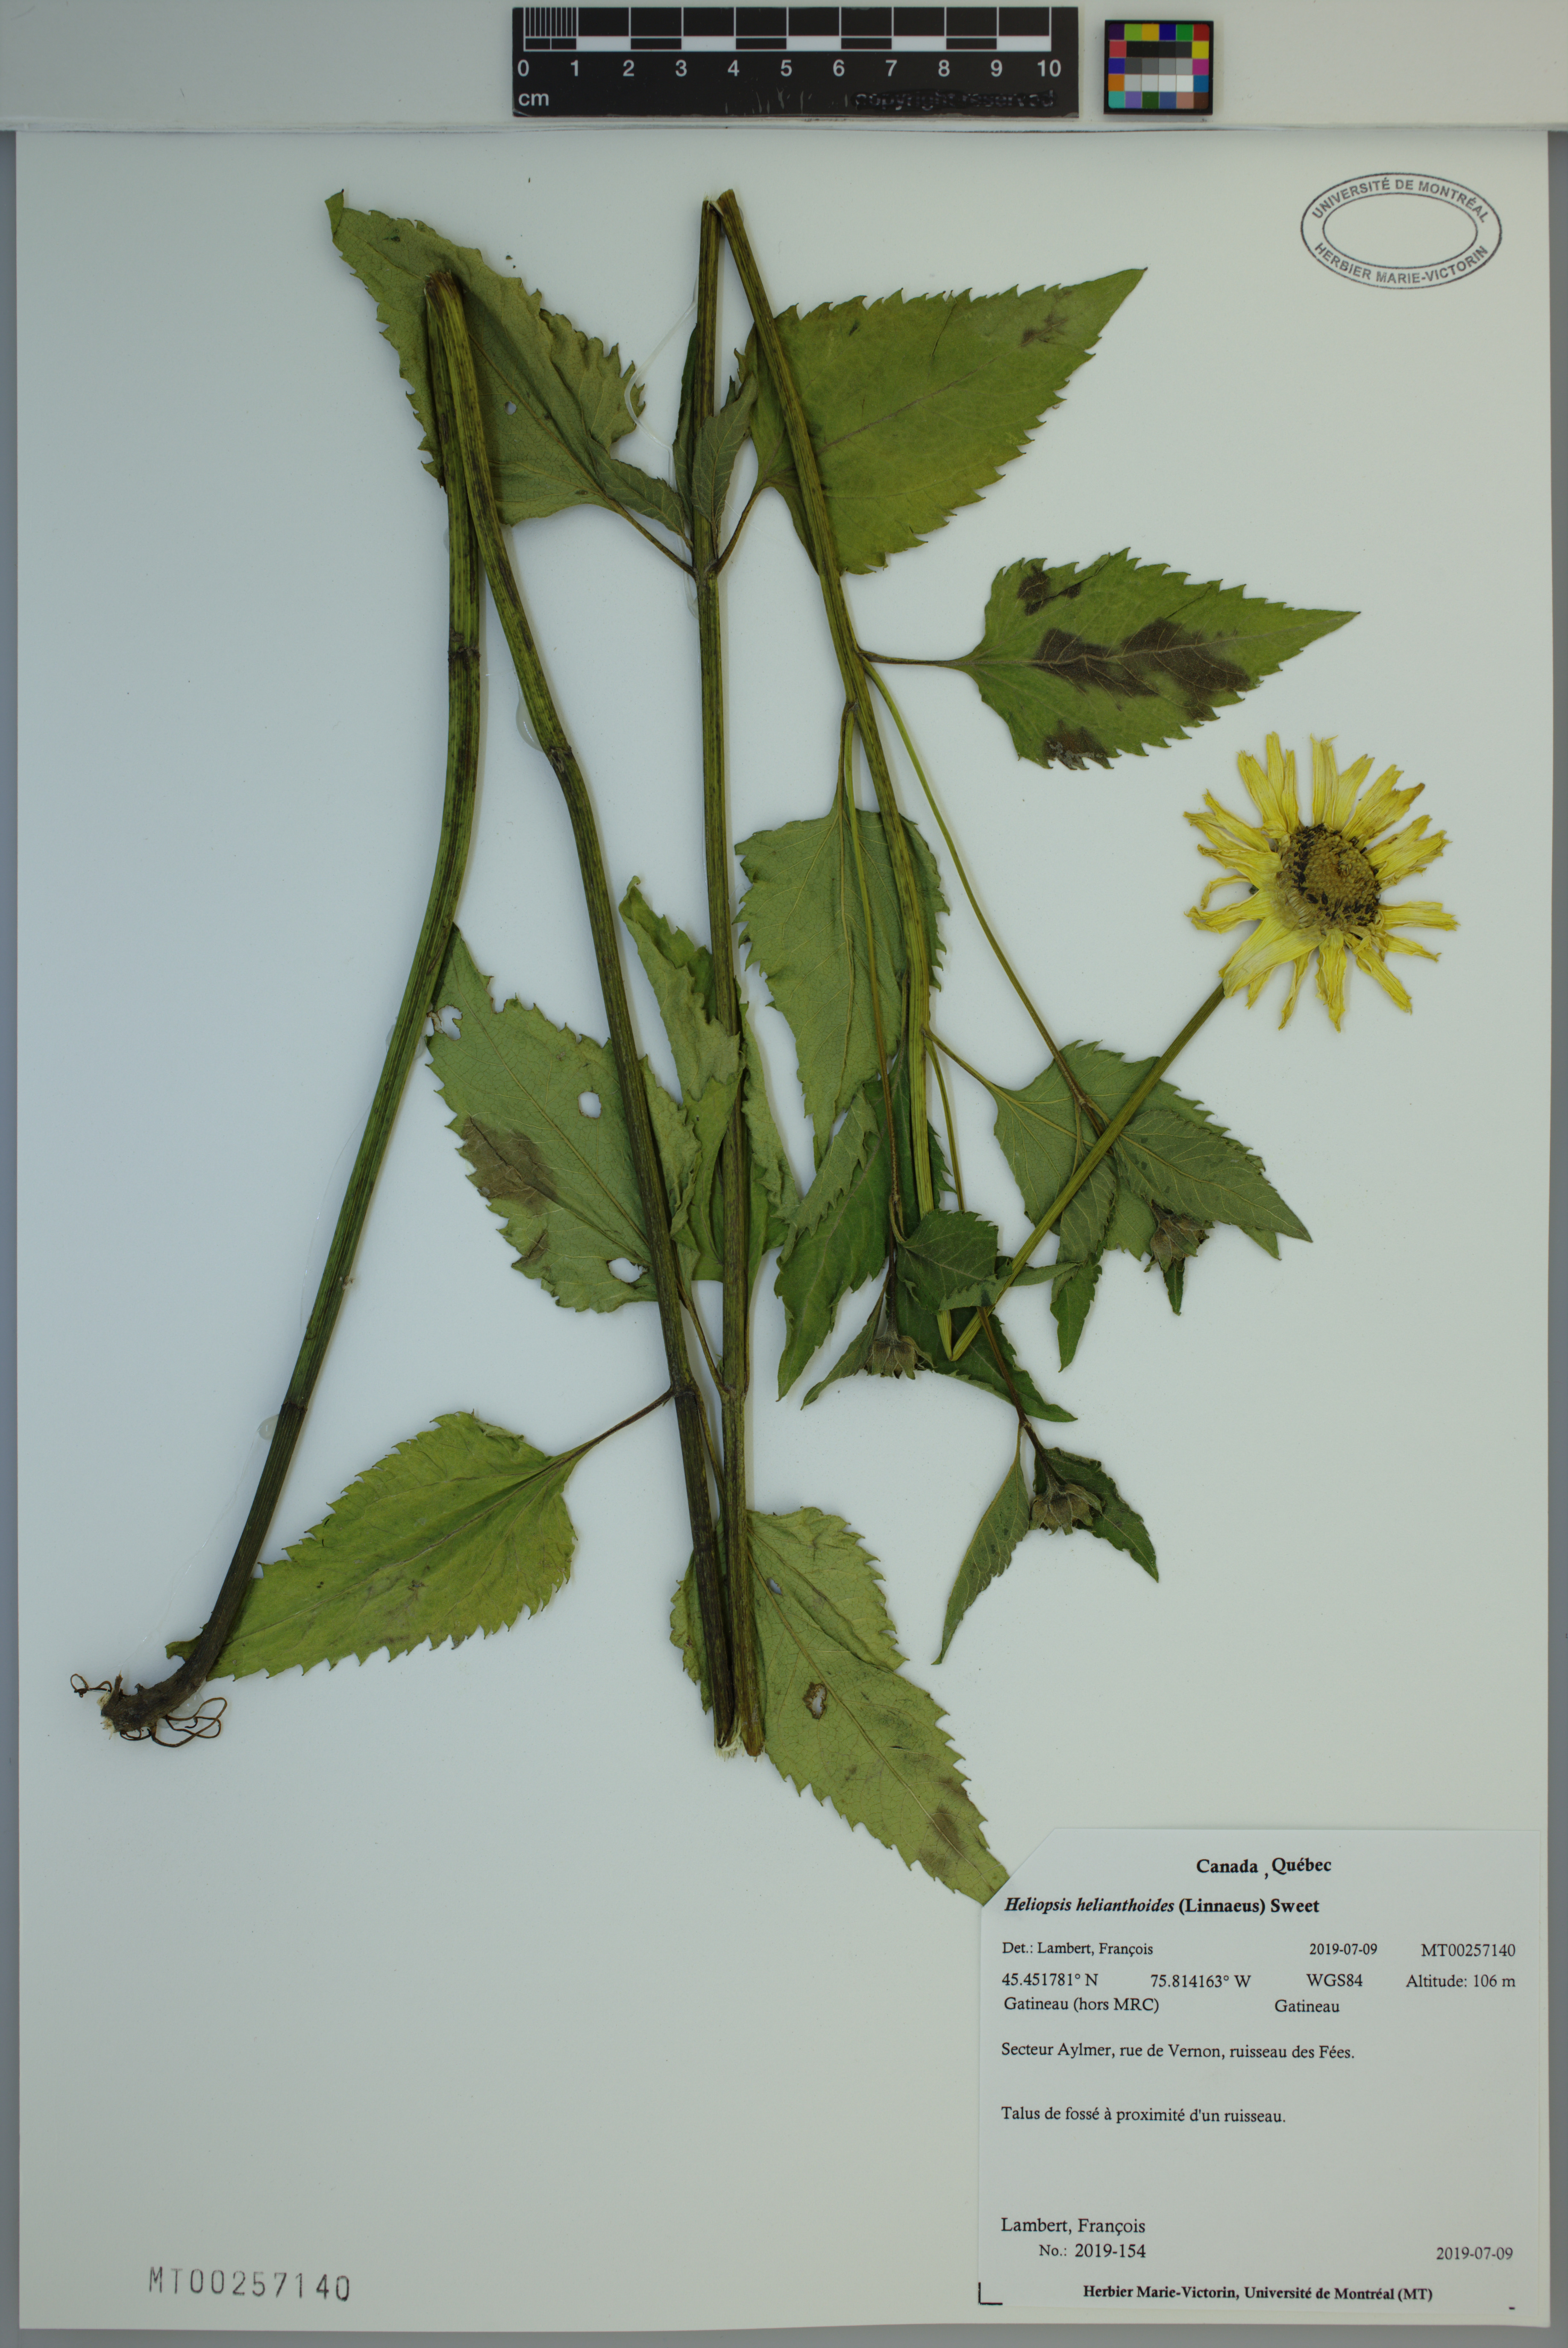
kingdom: Plantae
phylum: Tracheophyta
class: Magnoliopsida
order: Asterales
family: Asteraceae
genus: Heliopsis
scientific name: Heliopsis helianthoides
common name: False sunflower
